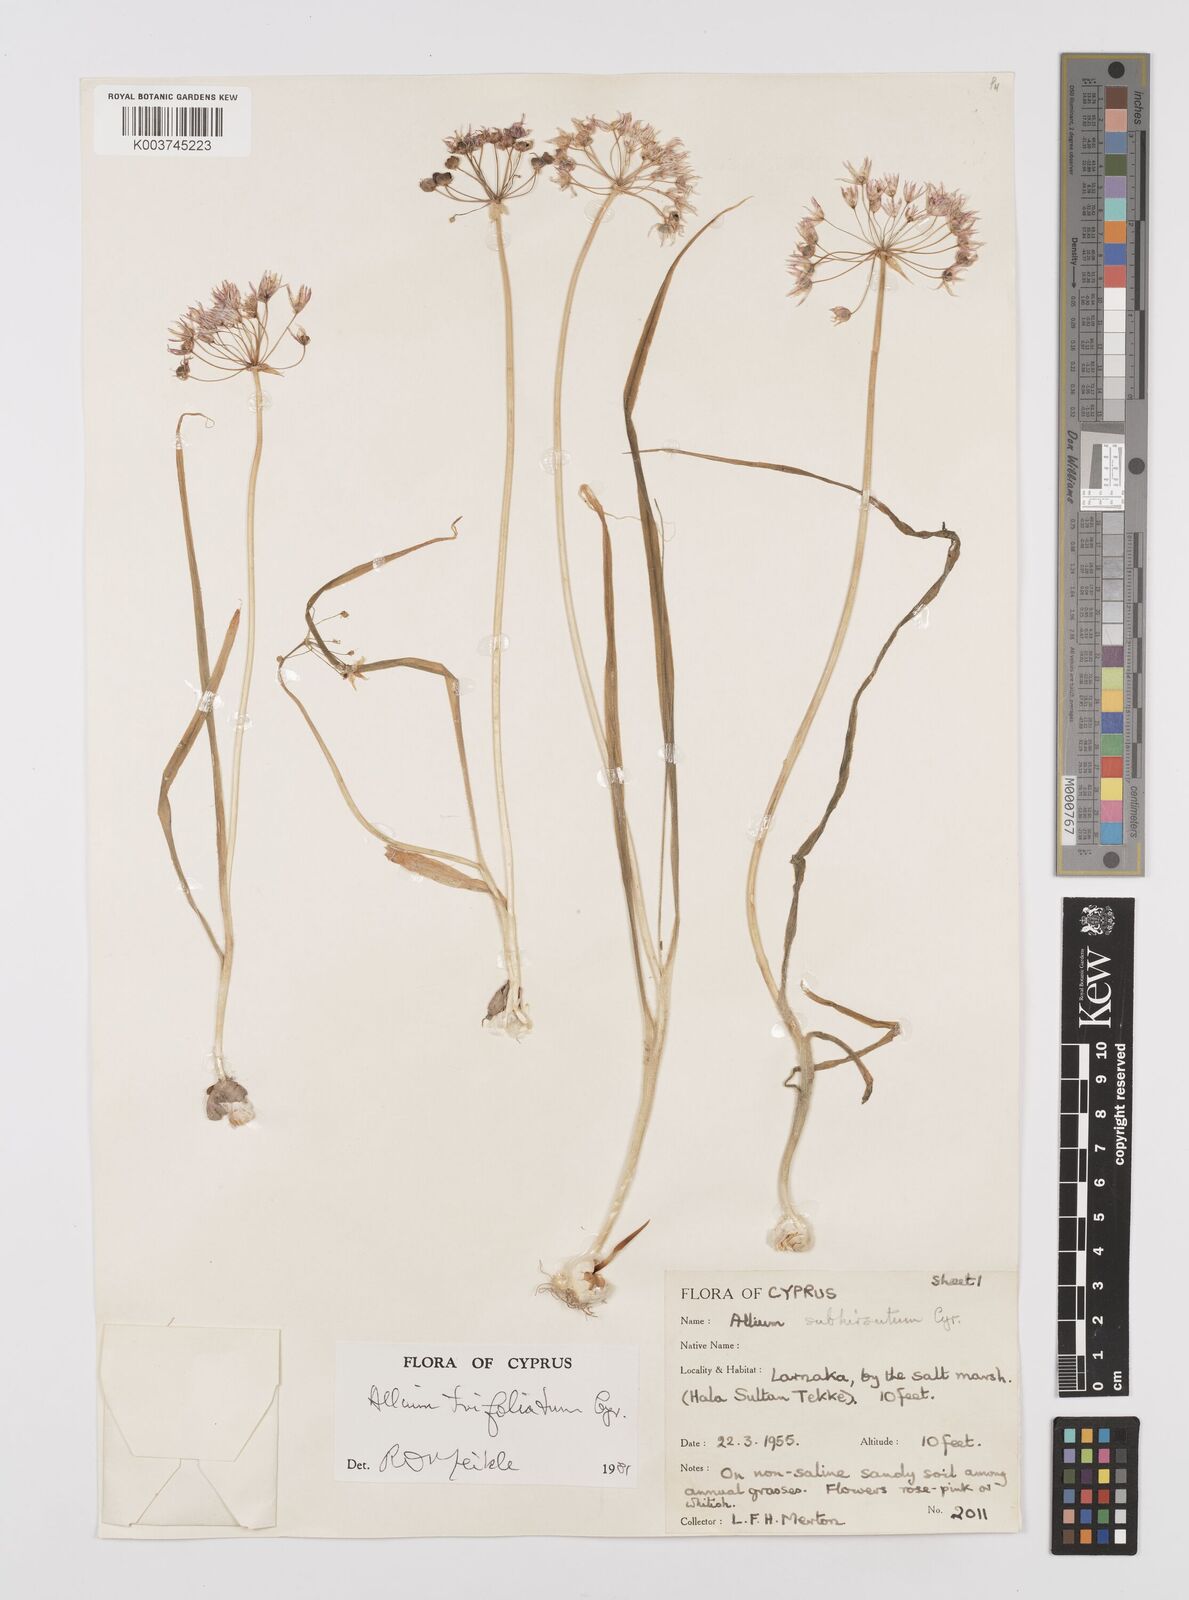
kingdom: Plantae
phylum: Tracheophyta
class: Liliopsida
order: Asparagales
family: Amaryllidaceae
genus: Allium
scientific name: Allium trifoliatum
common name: Pink garlic
